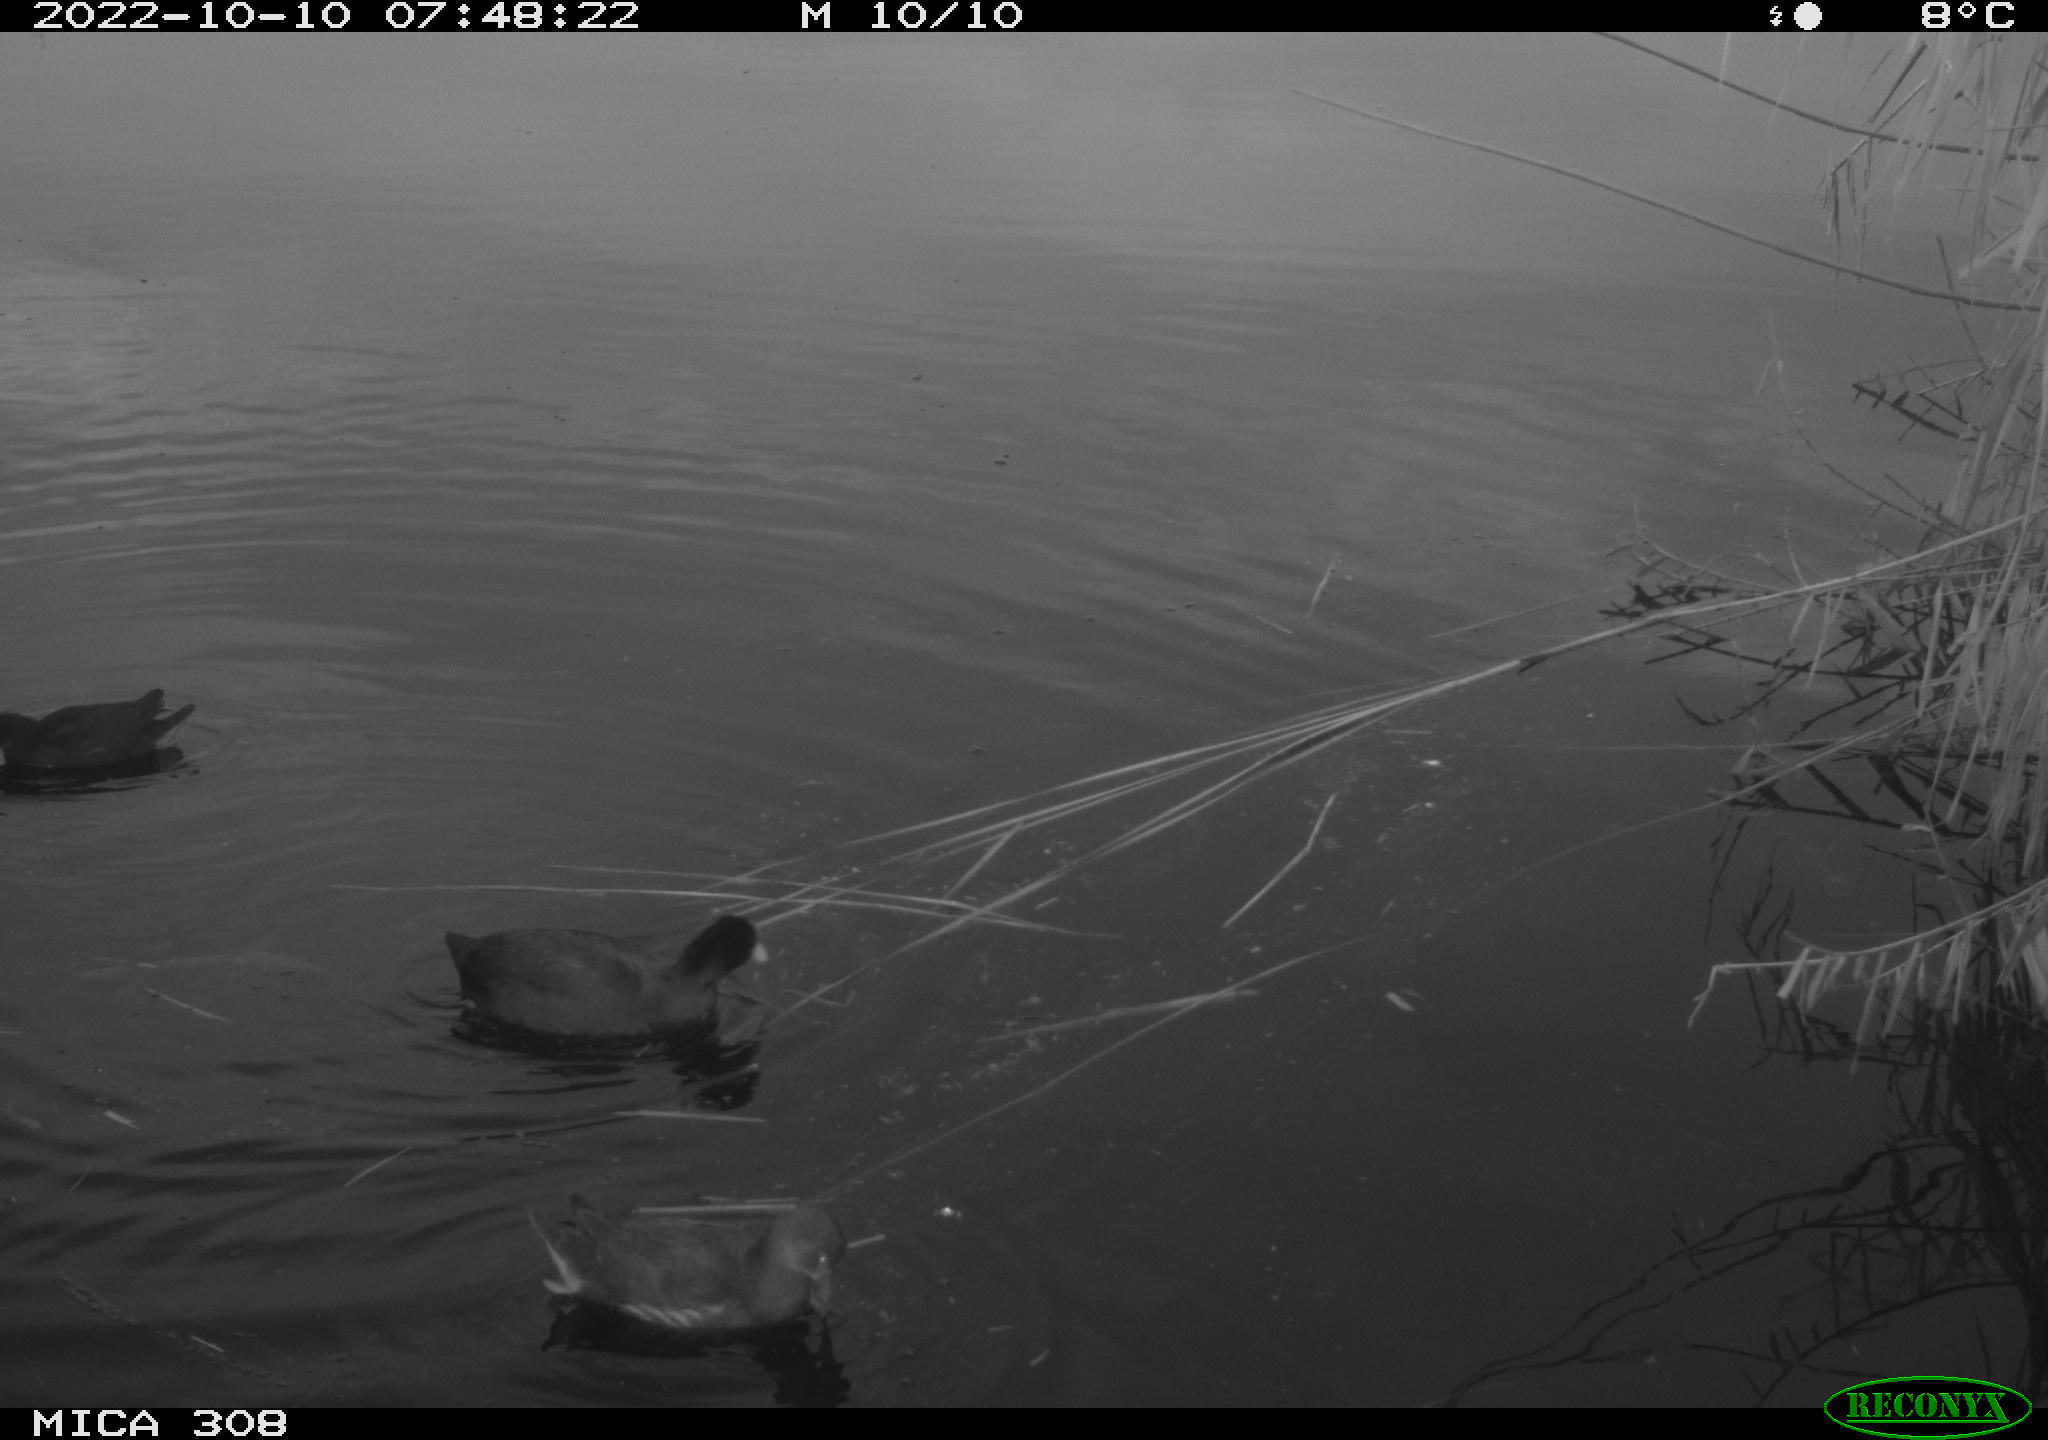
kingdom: Animalia
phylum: Chordata
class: Aves
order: Anseriformes
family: Anatidae
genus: Anas
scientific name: Anas
